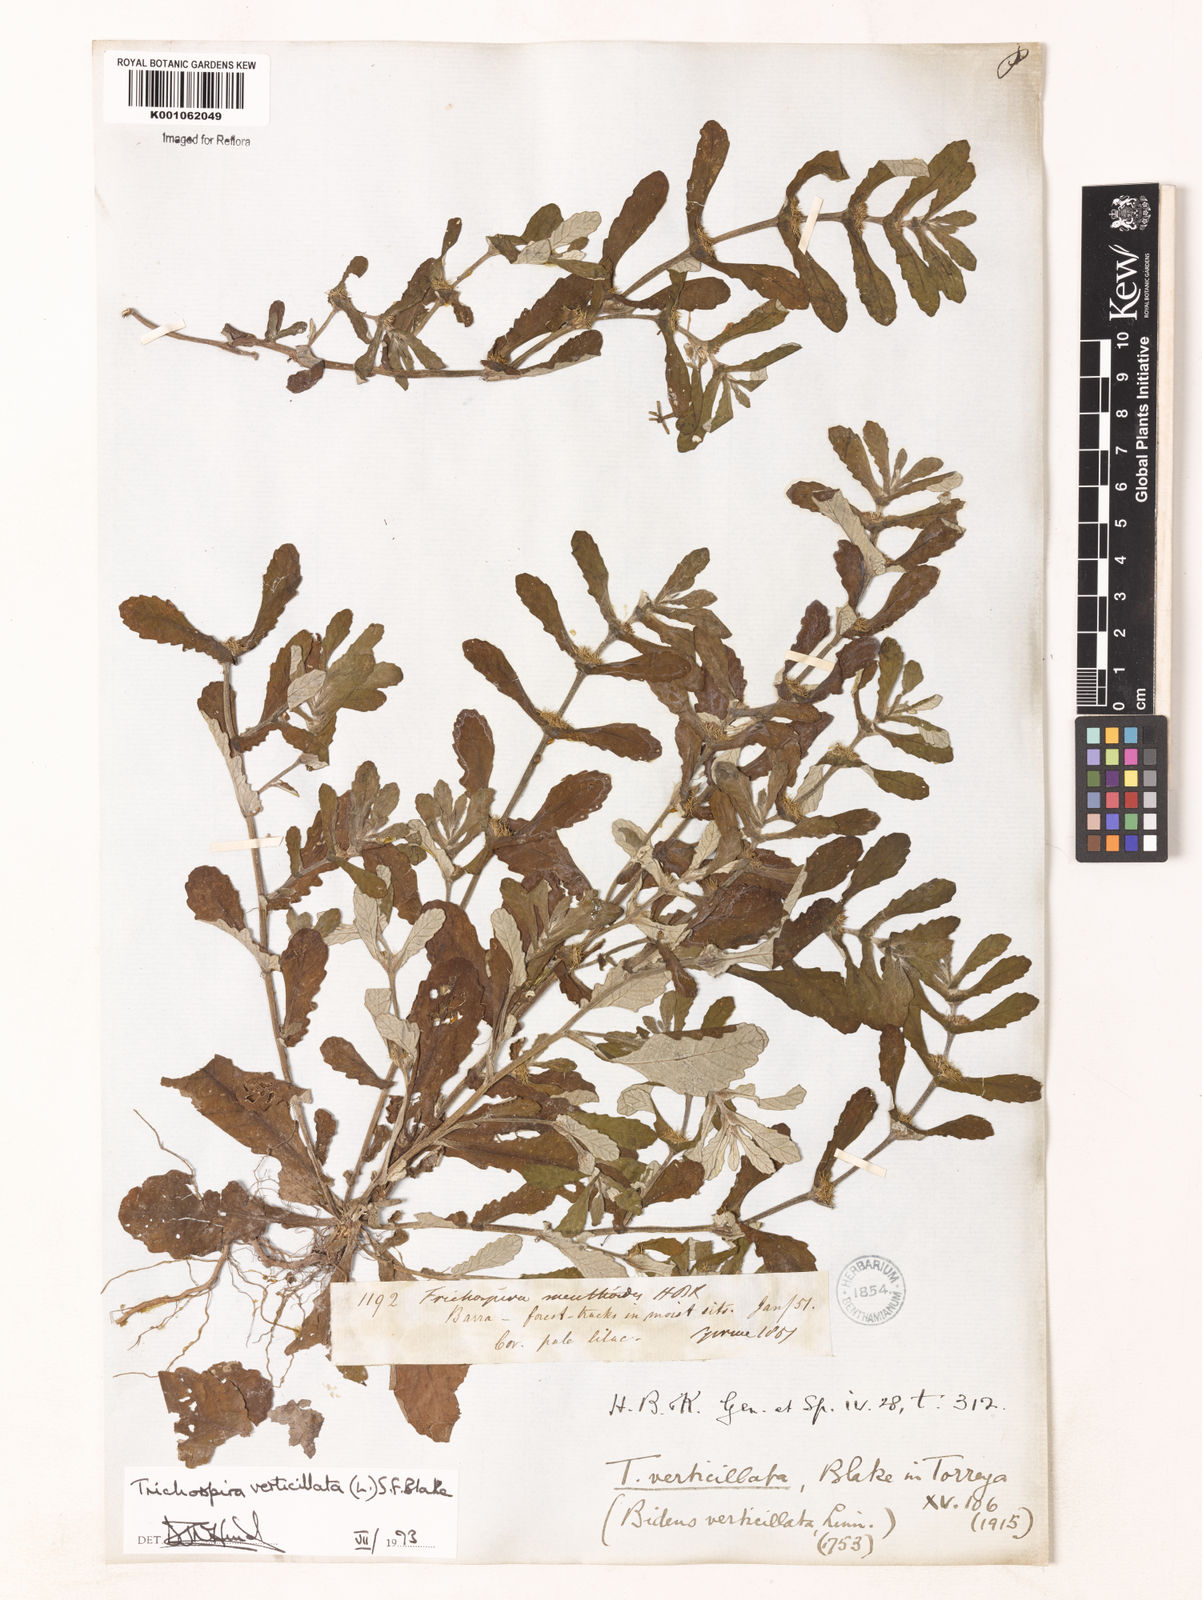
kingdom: Chromista
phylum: Ciliophora
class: Kinetofragminophora
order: Trichostomatida
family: Trichospiridae
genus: Trichospira
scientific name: Trichospira verticillata
